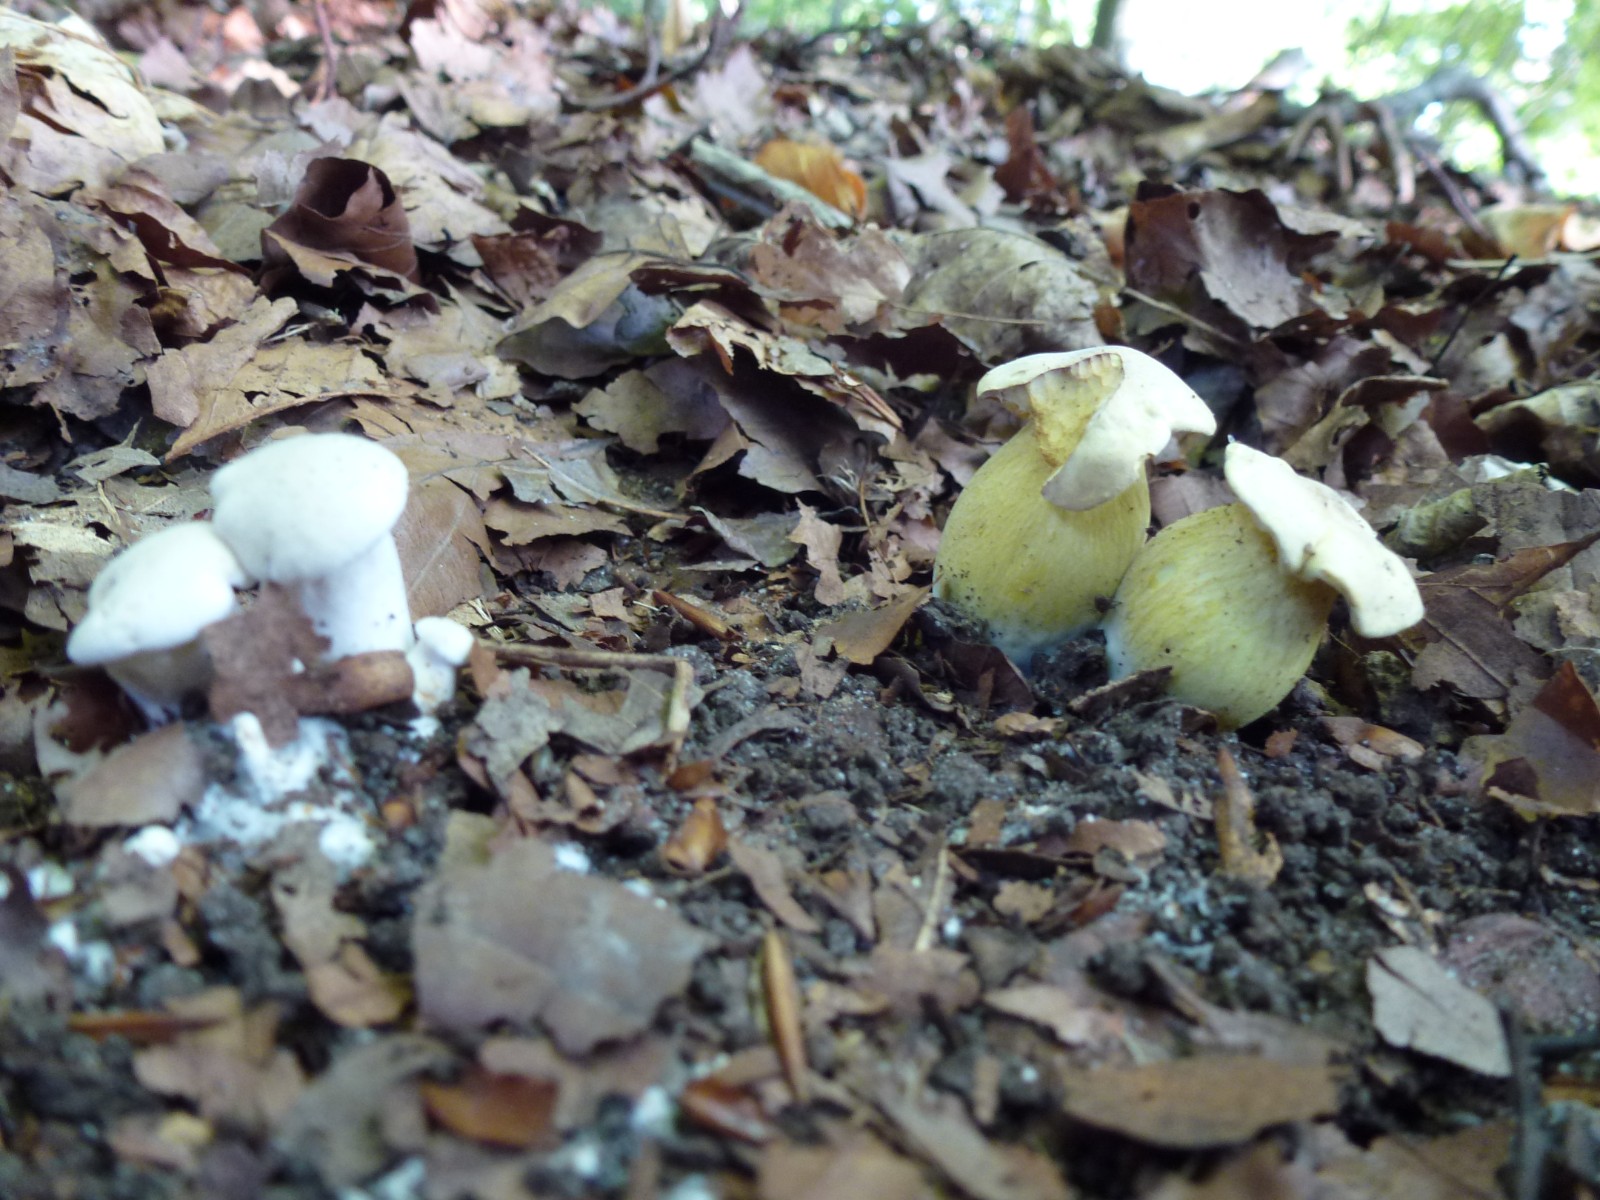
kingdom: Fungi
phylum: Basidiomycota
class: Agaricomycetes
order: Agaricales
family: Tricholomataceae
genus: Tricholoma
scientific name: Tricholoma sulphureum
